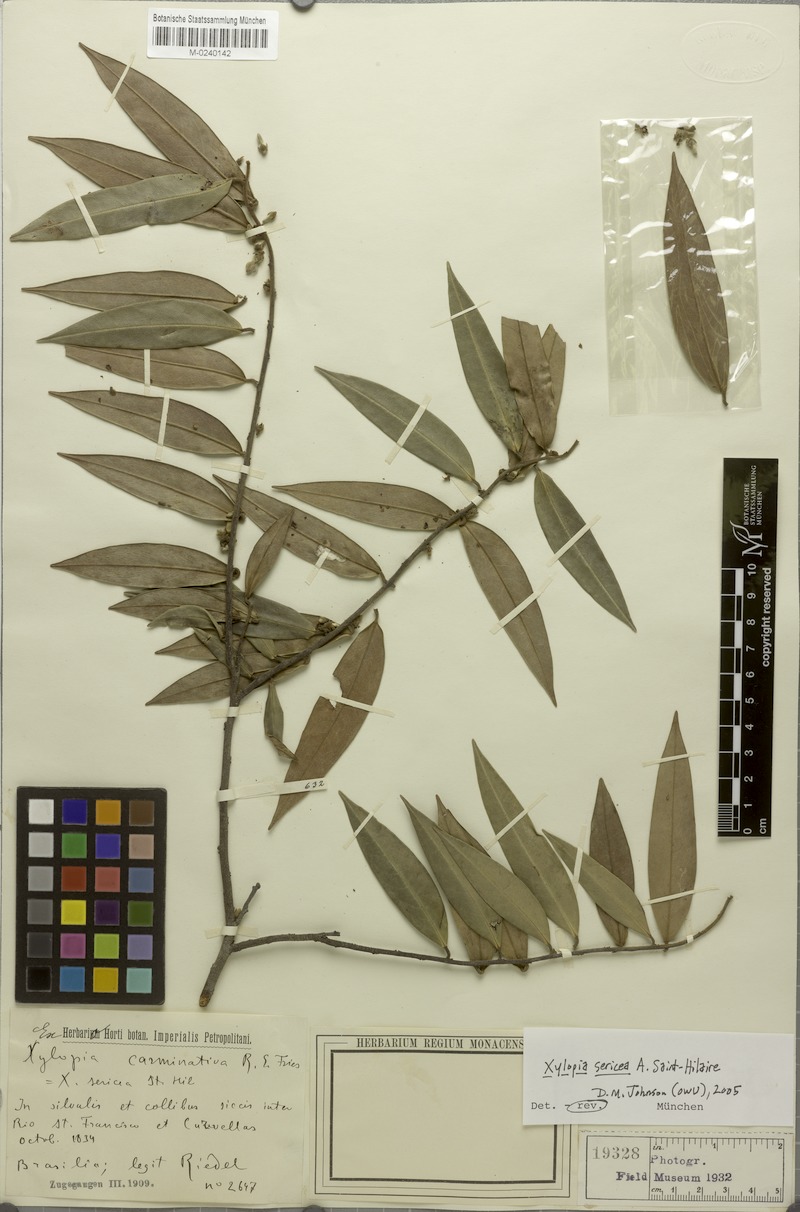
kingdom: Plantae
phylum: Tracheophyta
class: Magnoliopsida
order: Magnoliales
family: Annonaceae
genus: Xylopia
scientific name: Xylopia sericea
